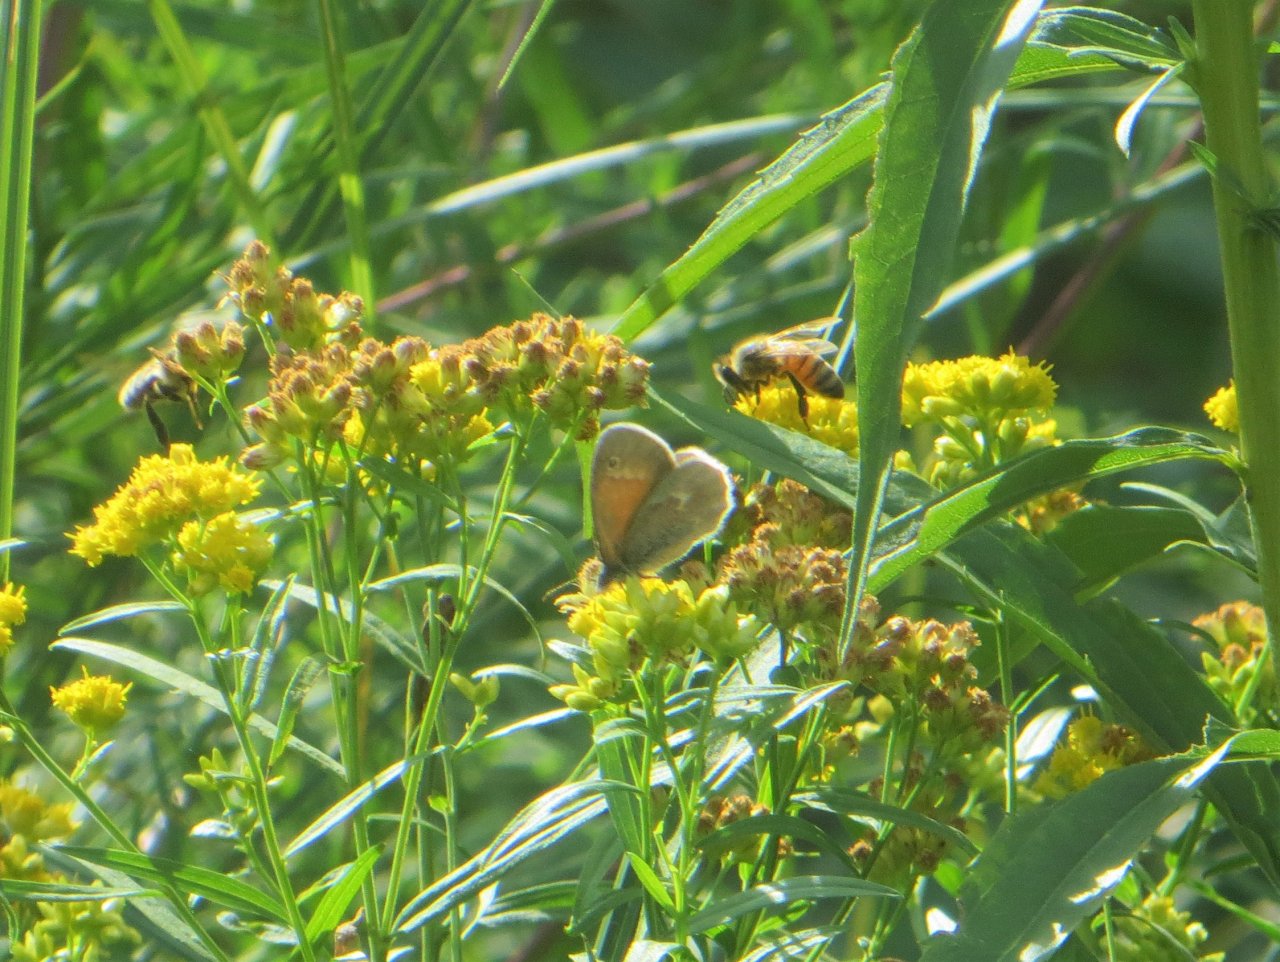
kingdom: Animalia
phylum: Arthropoda
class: Insecta
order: Lepidoptera
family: Nymphalidae
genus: Coenonympha
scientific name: Coenonympha tullia
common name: Large Heath
